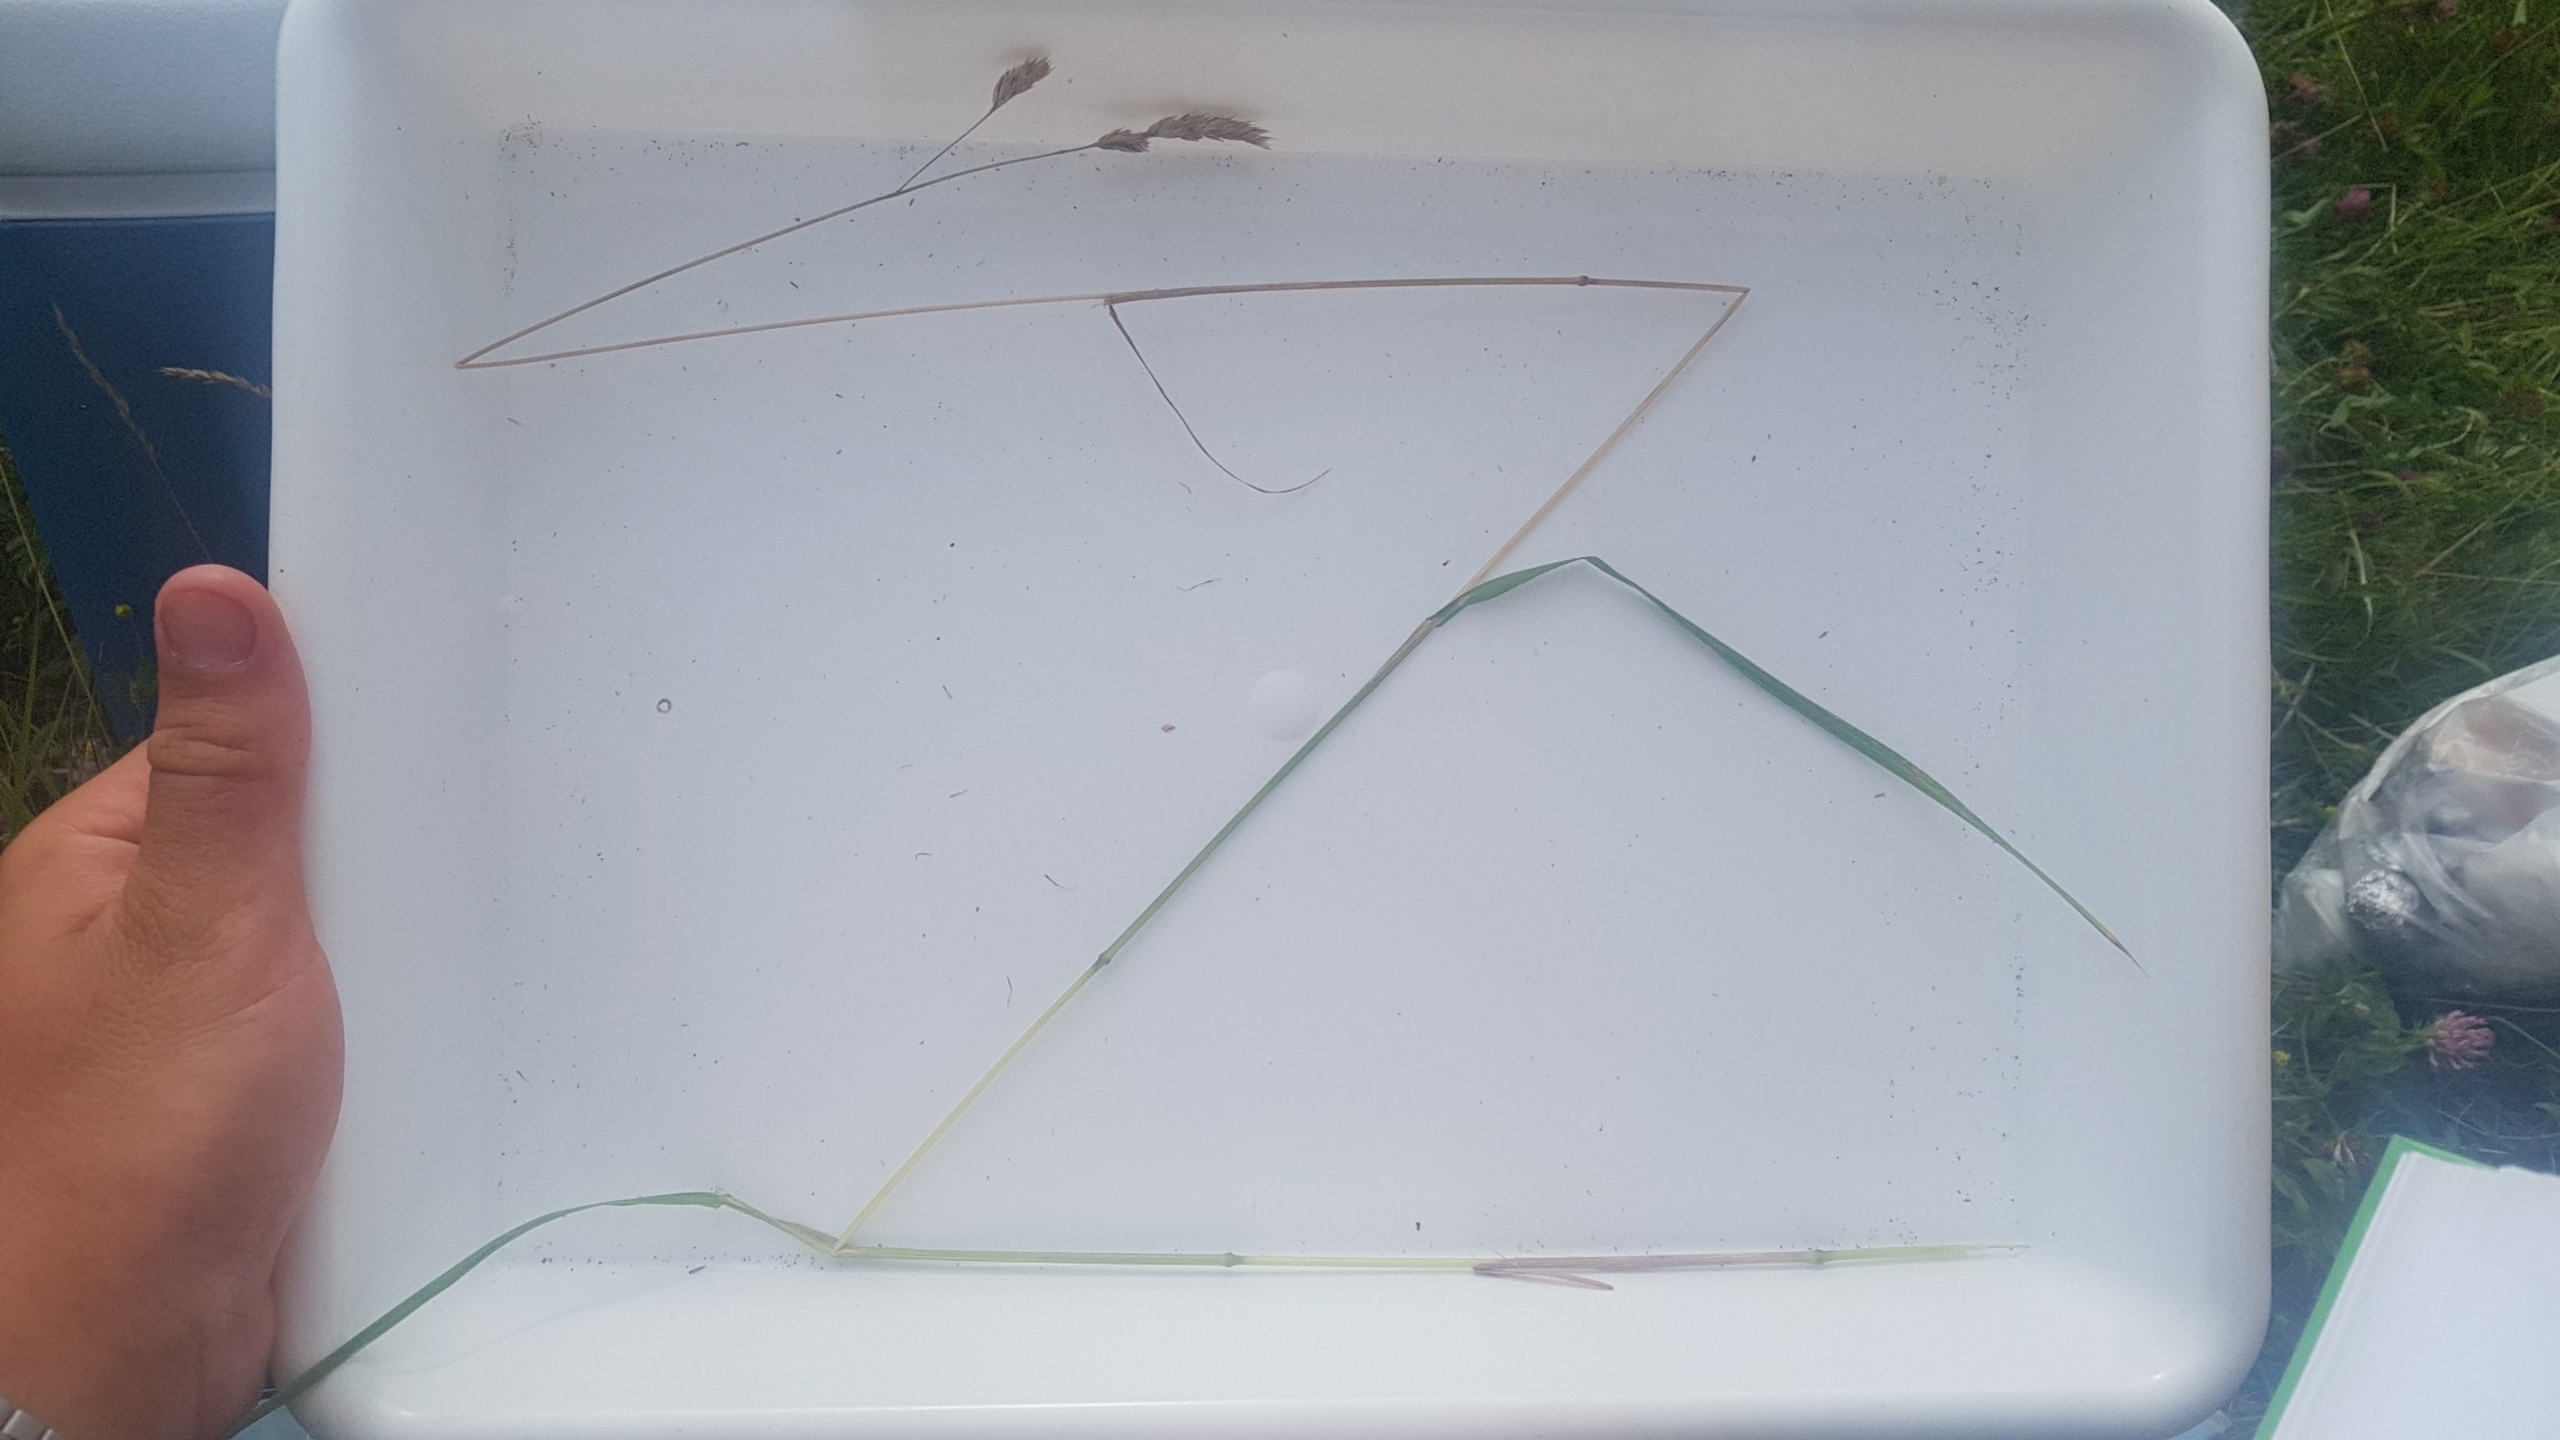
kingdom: Plantae
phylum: Tracheophyta
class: Liliopsida
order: Poales
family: Poaceae
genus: Dactylis
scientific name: Dactylis glomerata
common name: Almindelig hundegræs
